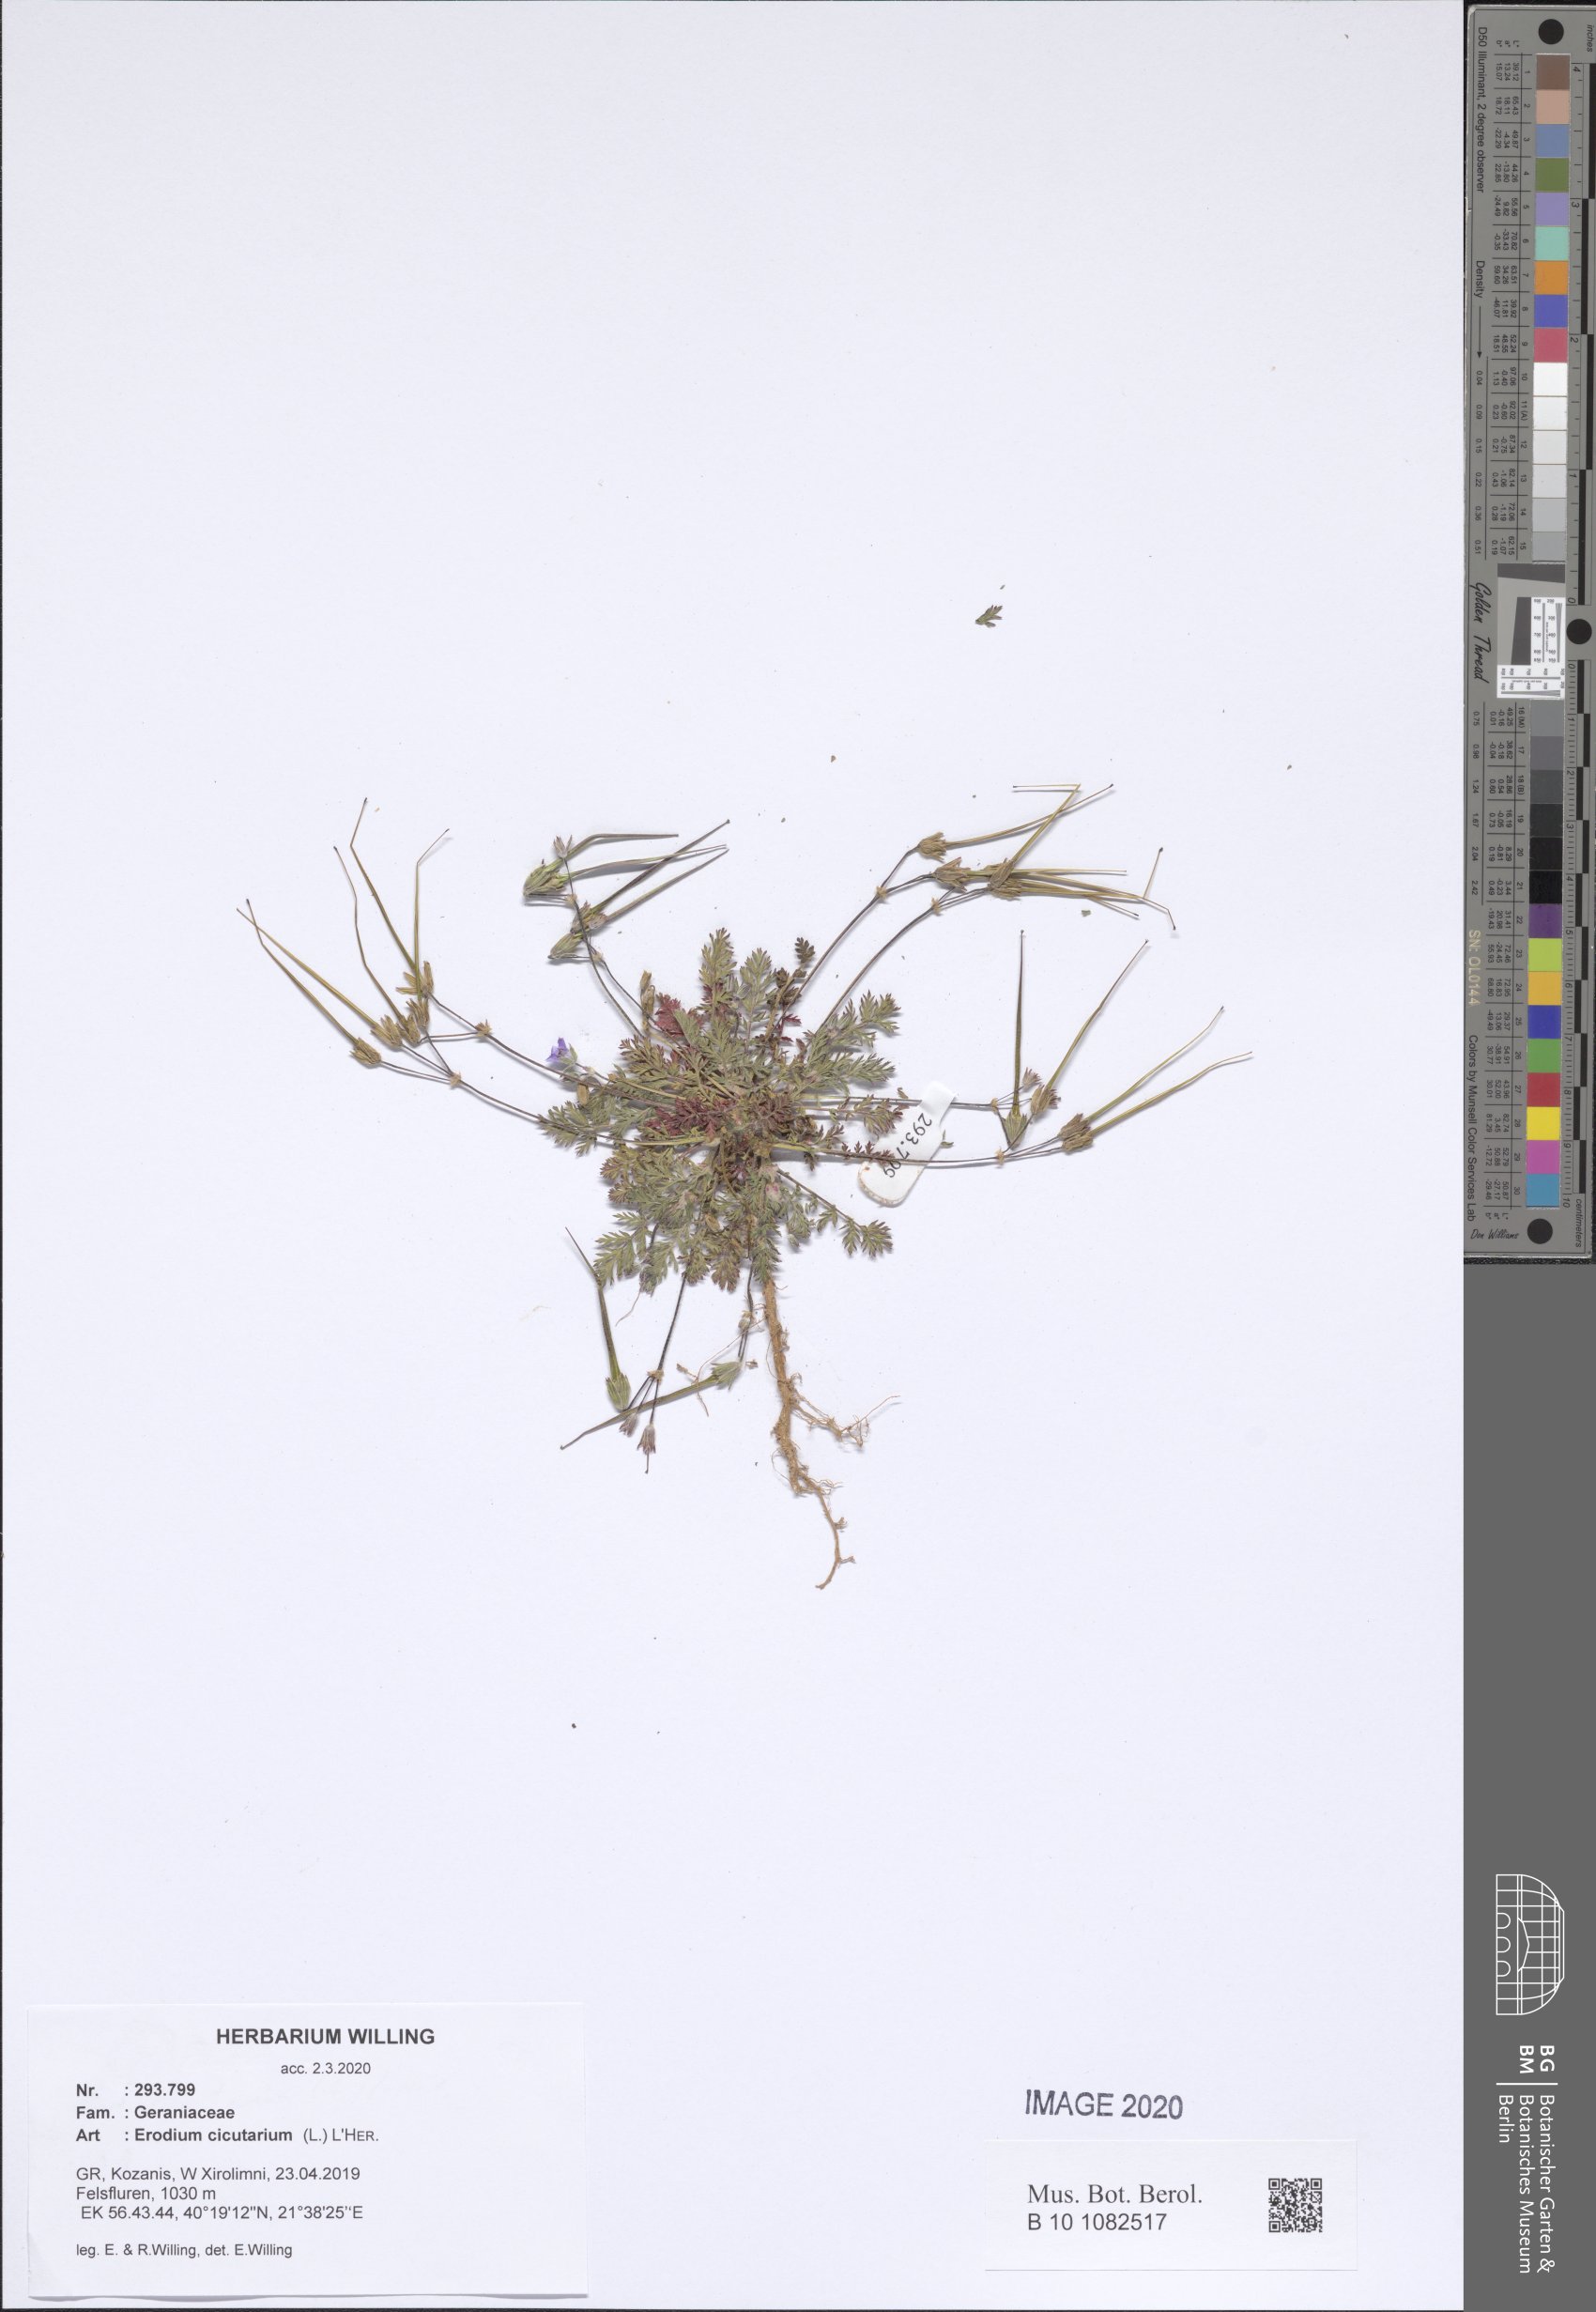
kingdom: Plantae
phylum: Tracheophyta
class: Magnoliopsida
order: Geraniales
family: Geraniaceae
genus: Erodium
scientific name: Erodium cicutarium
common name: Common stork's-bill
